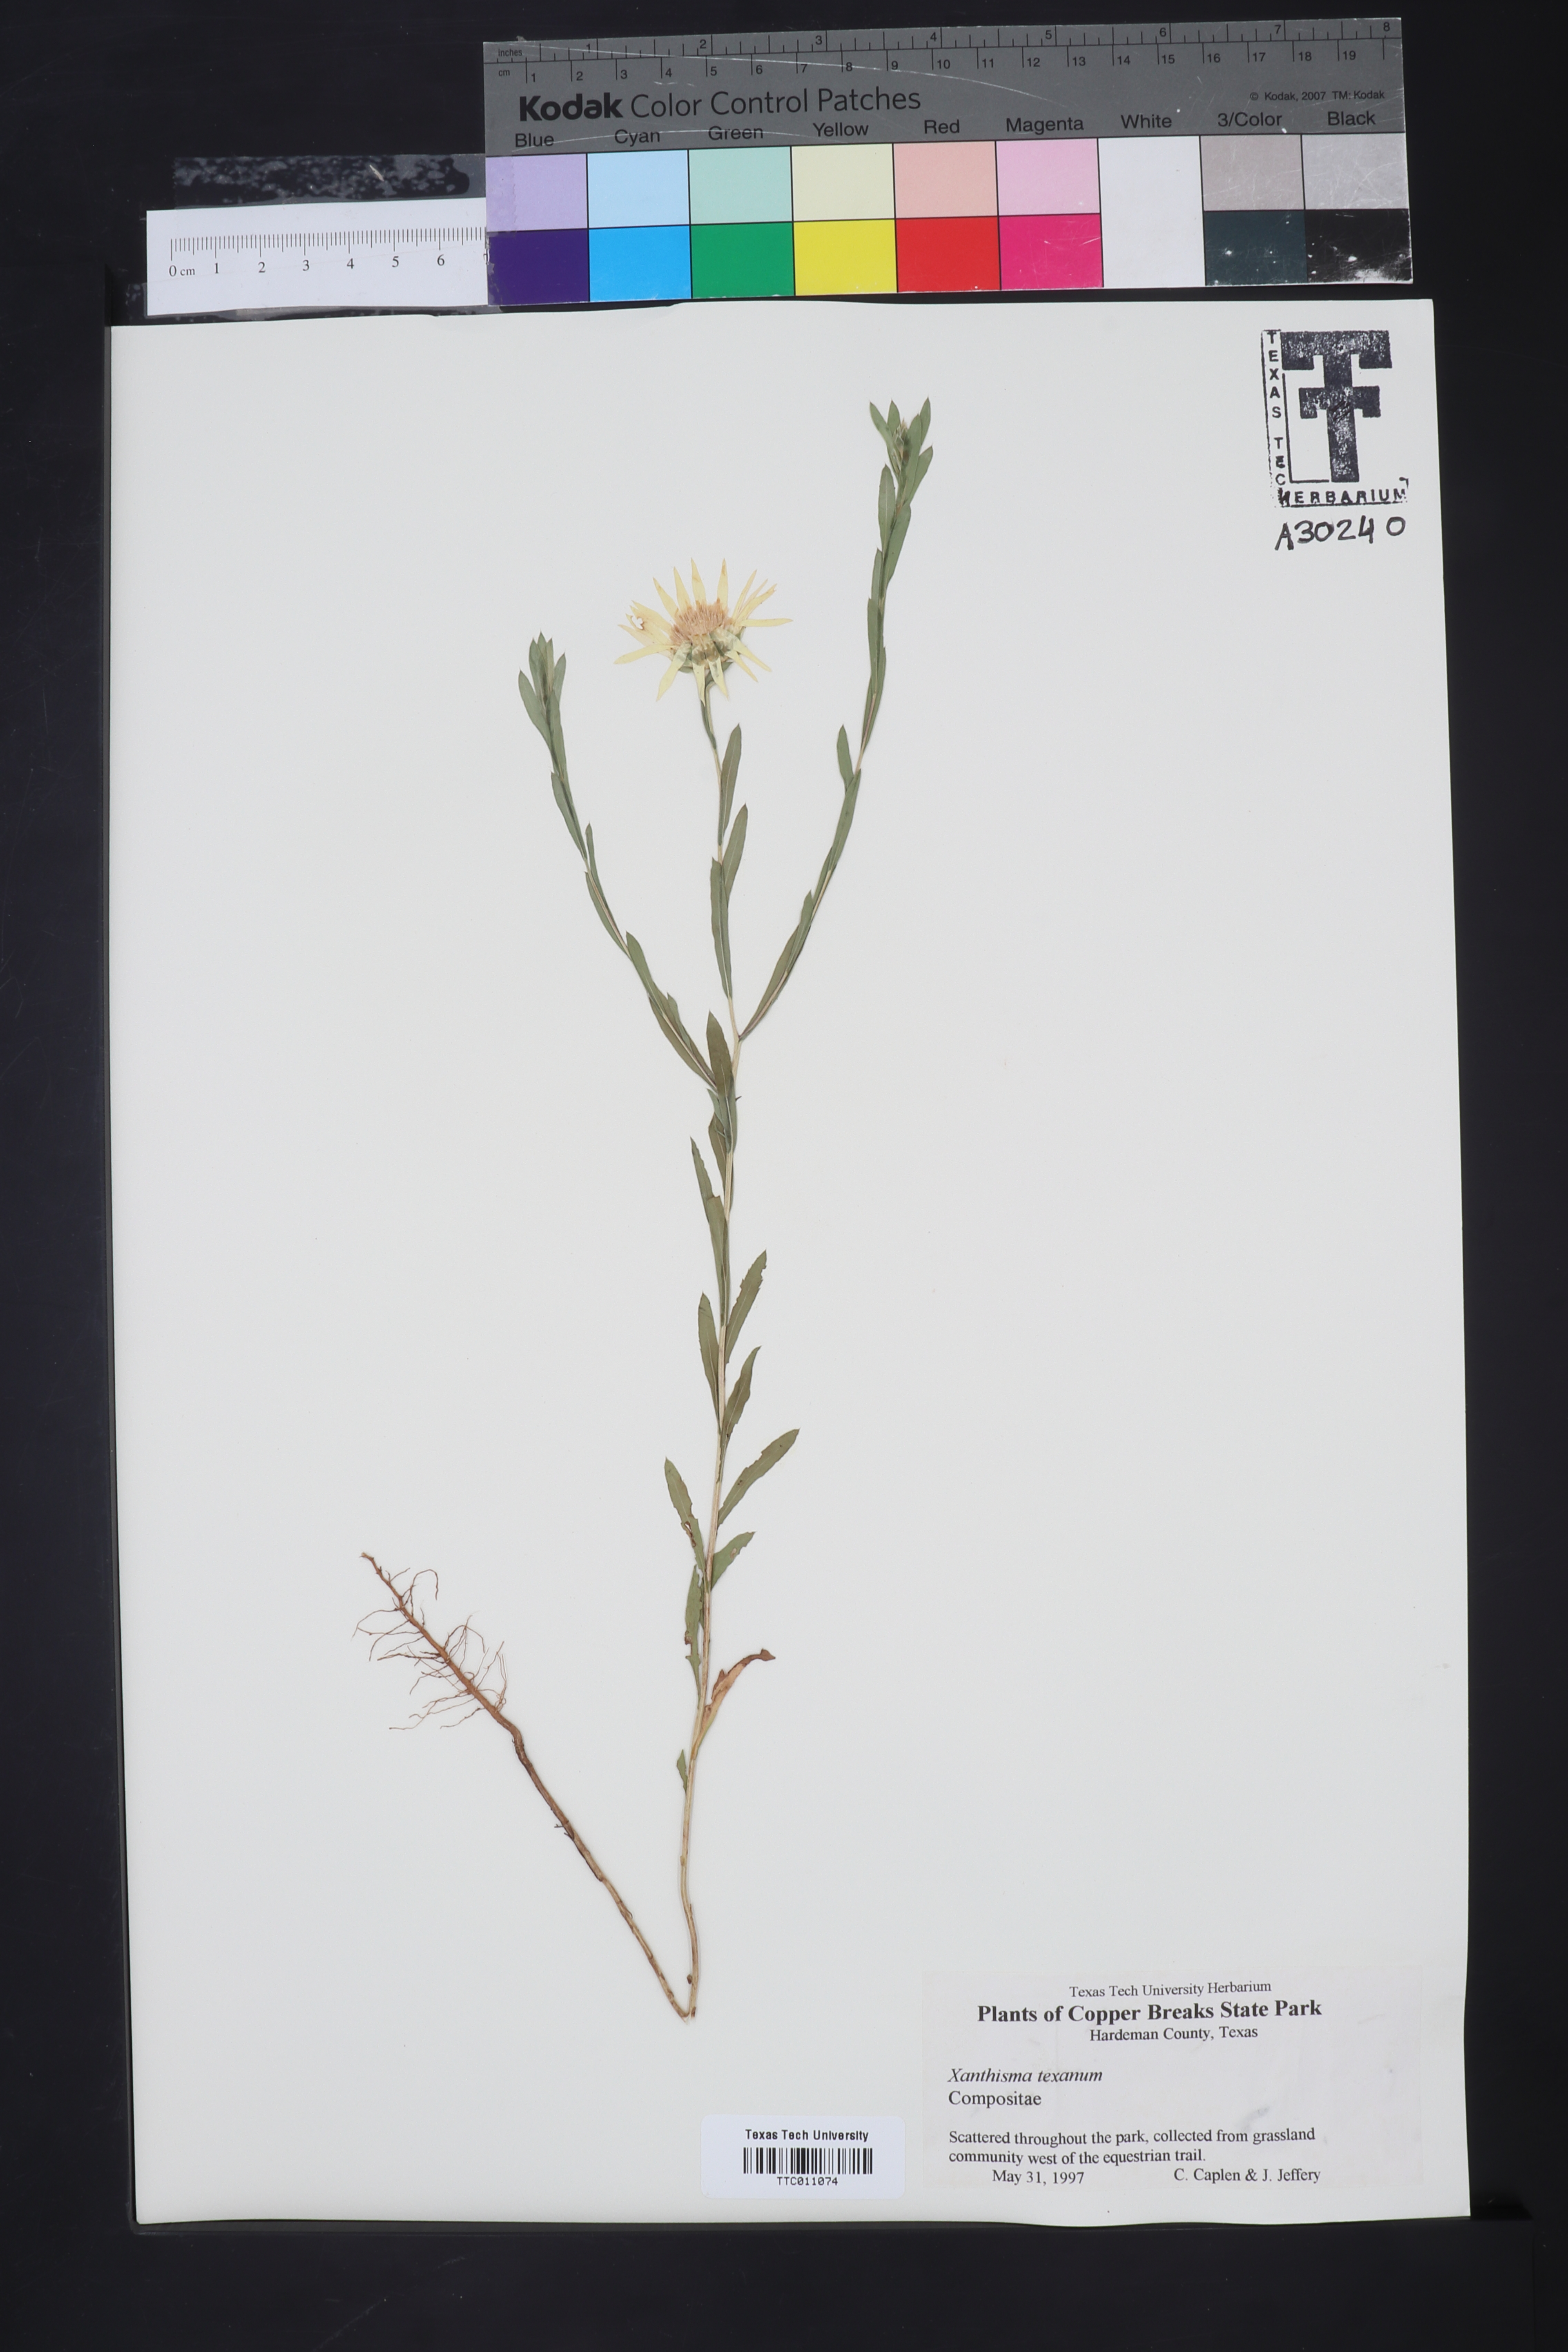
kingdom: Plantae
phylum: Tracheophyta
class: Magnoliopsida
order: Asterales
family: Asteraceae
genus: Xanthisma
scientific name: Xanthisma texanum
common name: Texas sleepy daisy
